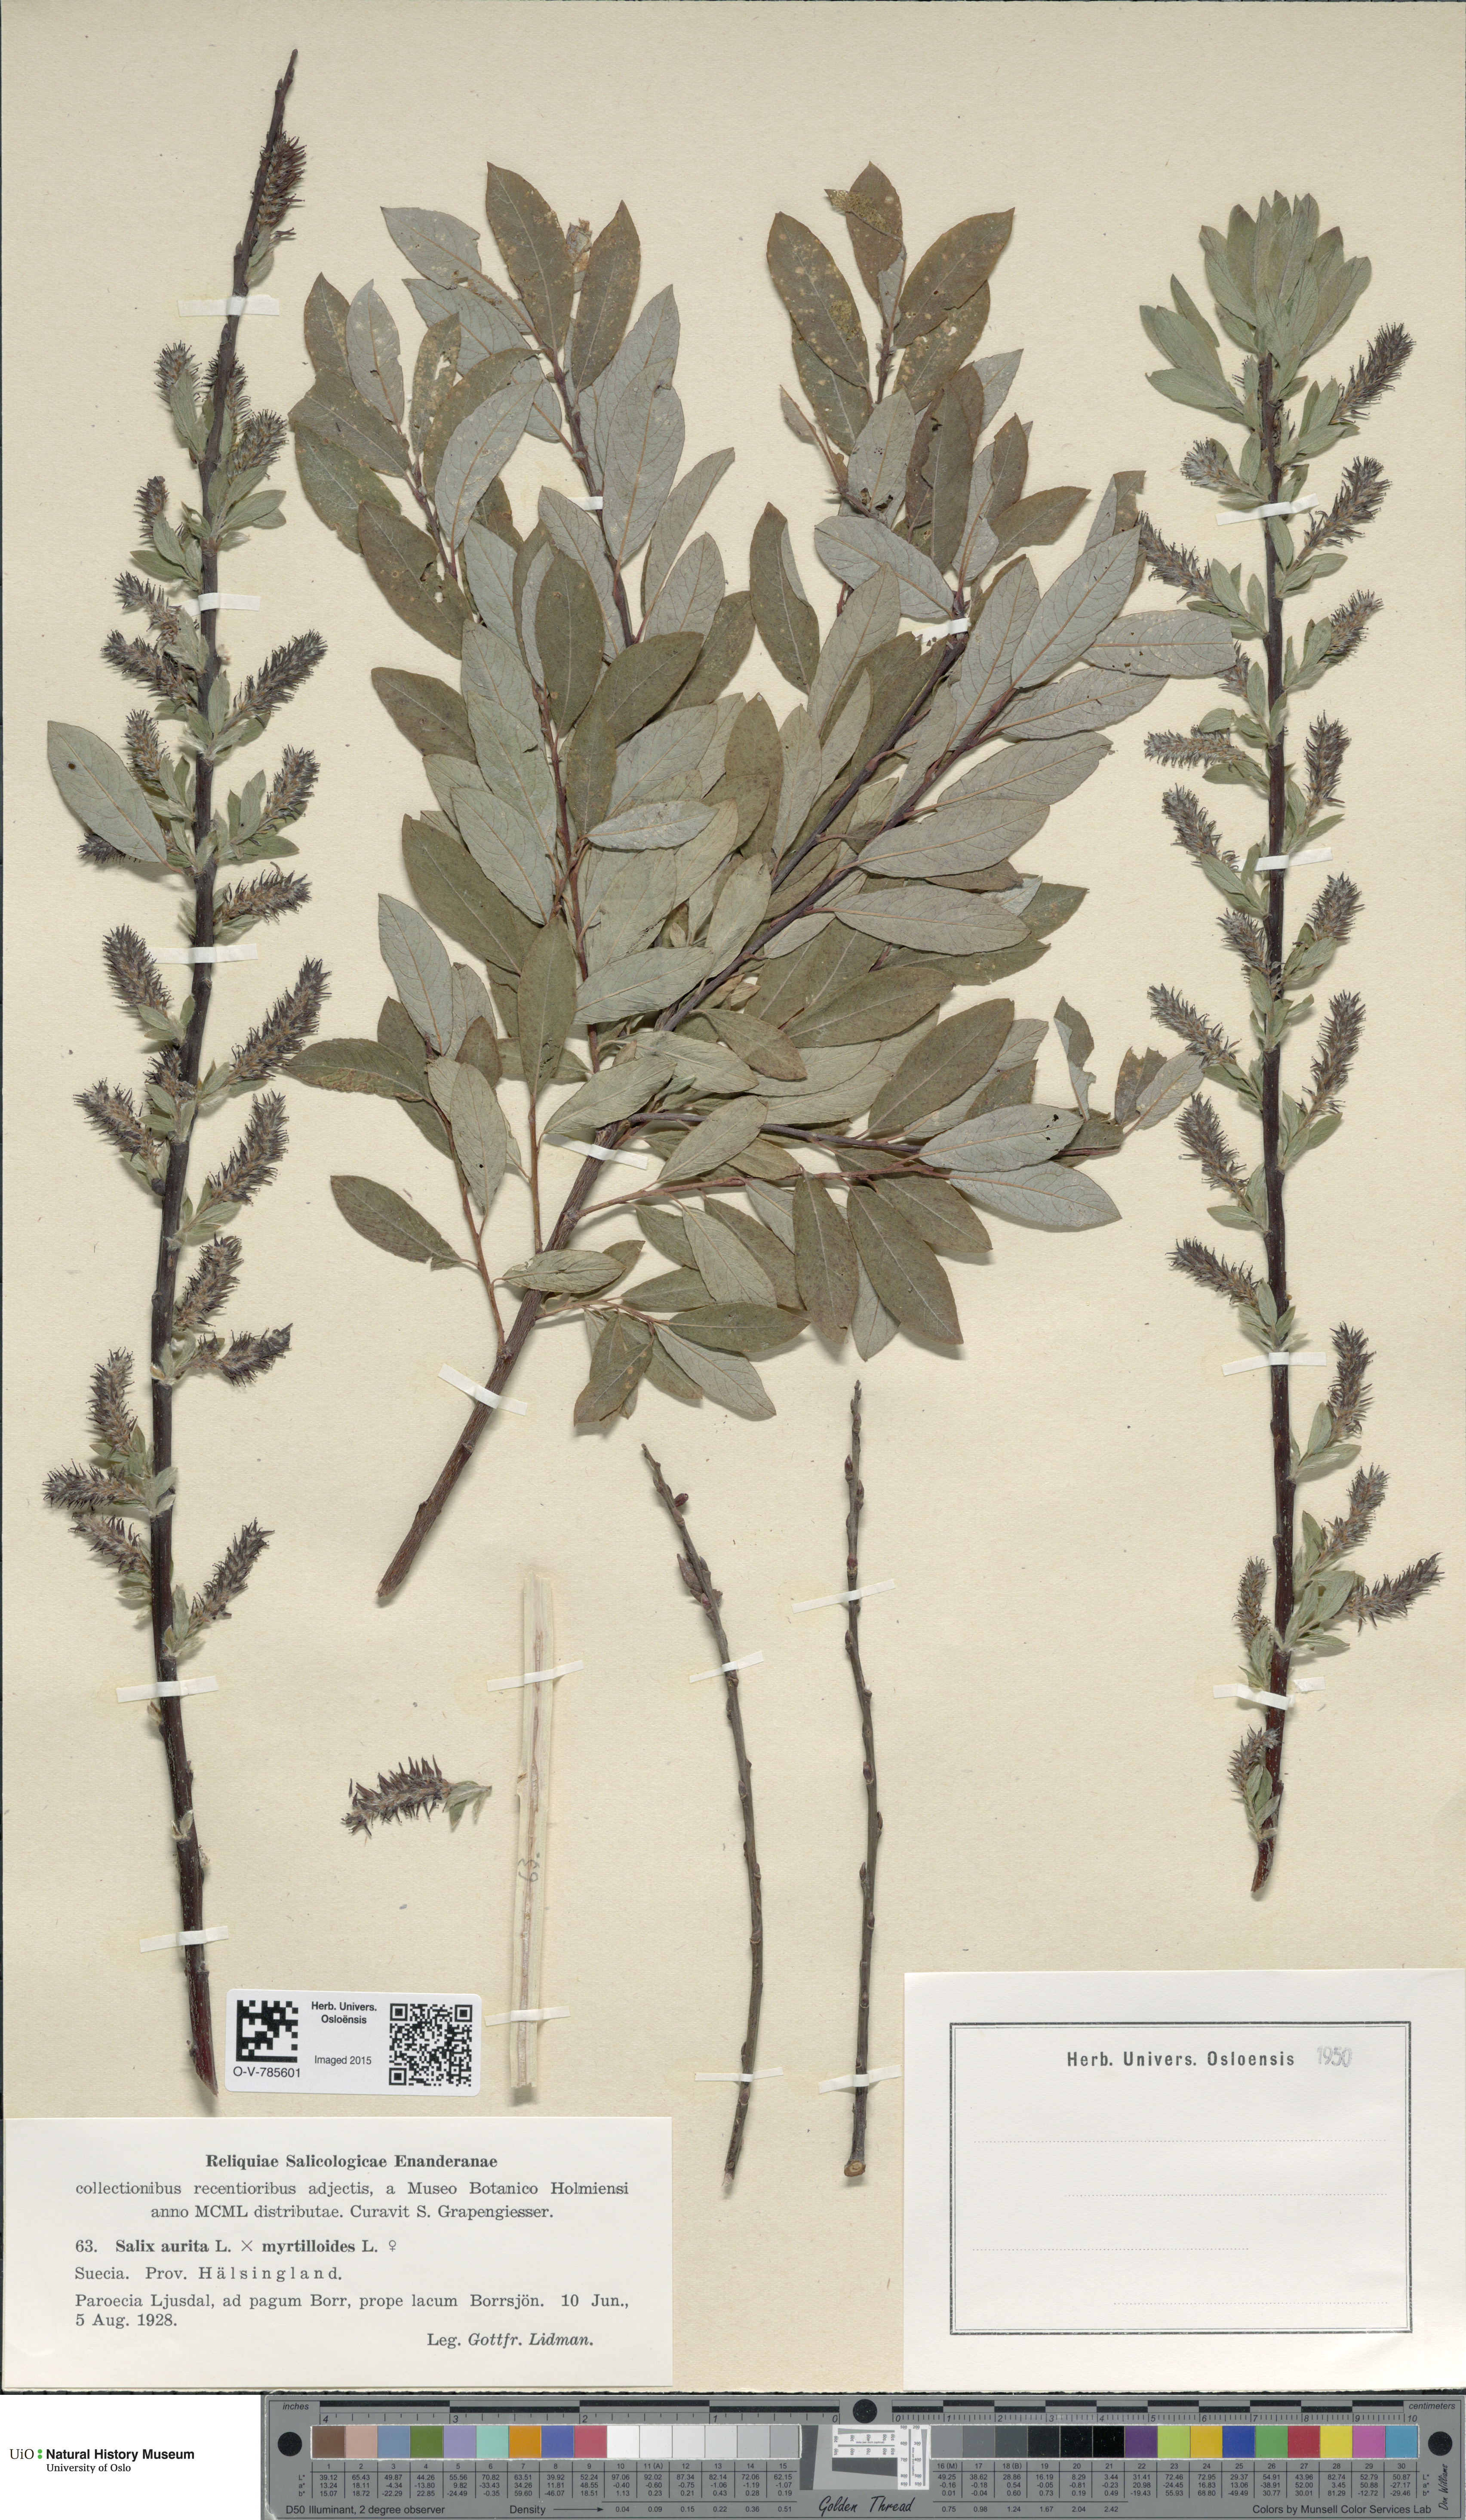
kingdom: Plantae
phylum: Tracheophyta
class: Magnoliopsida
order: Malpighiales
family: Salicaceae
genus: Salix
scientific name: Salix
